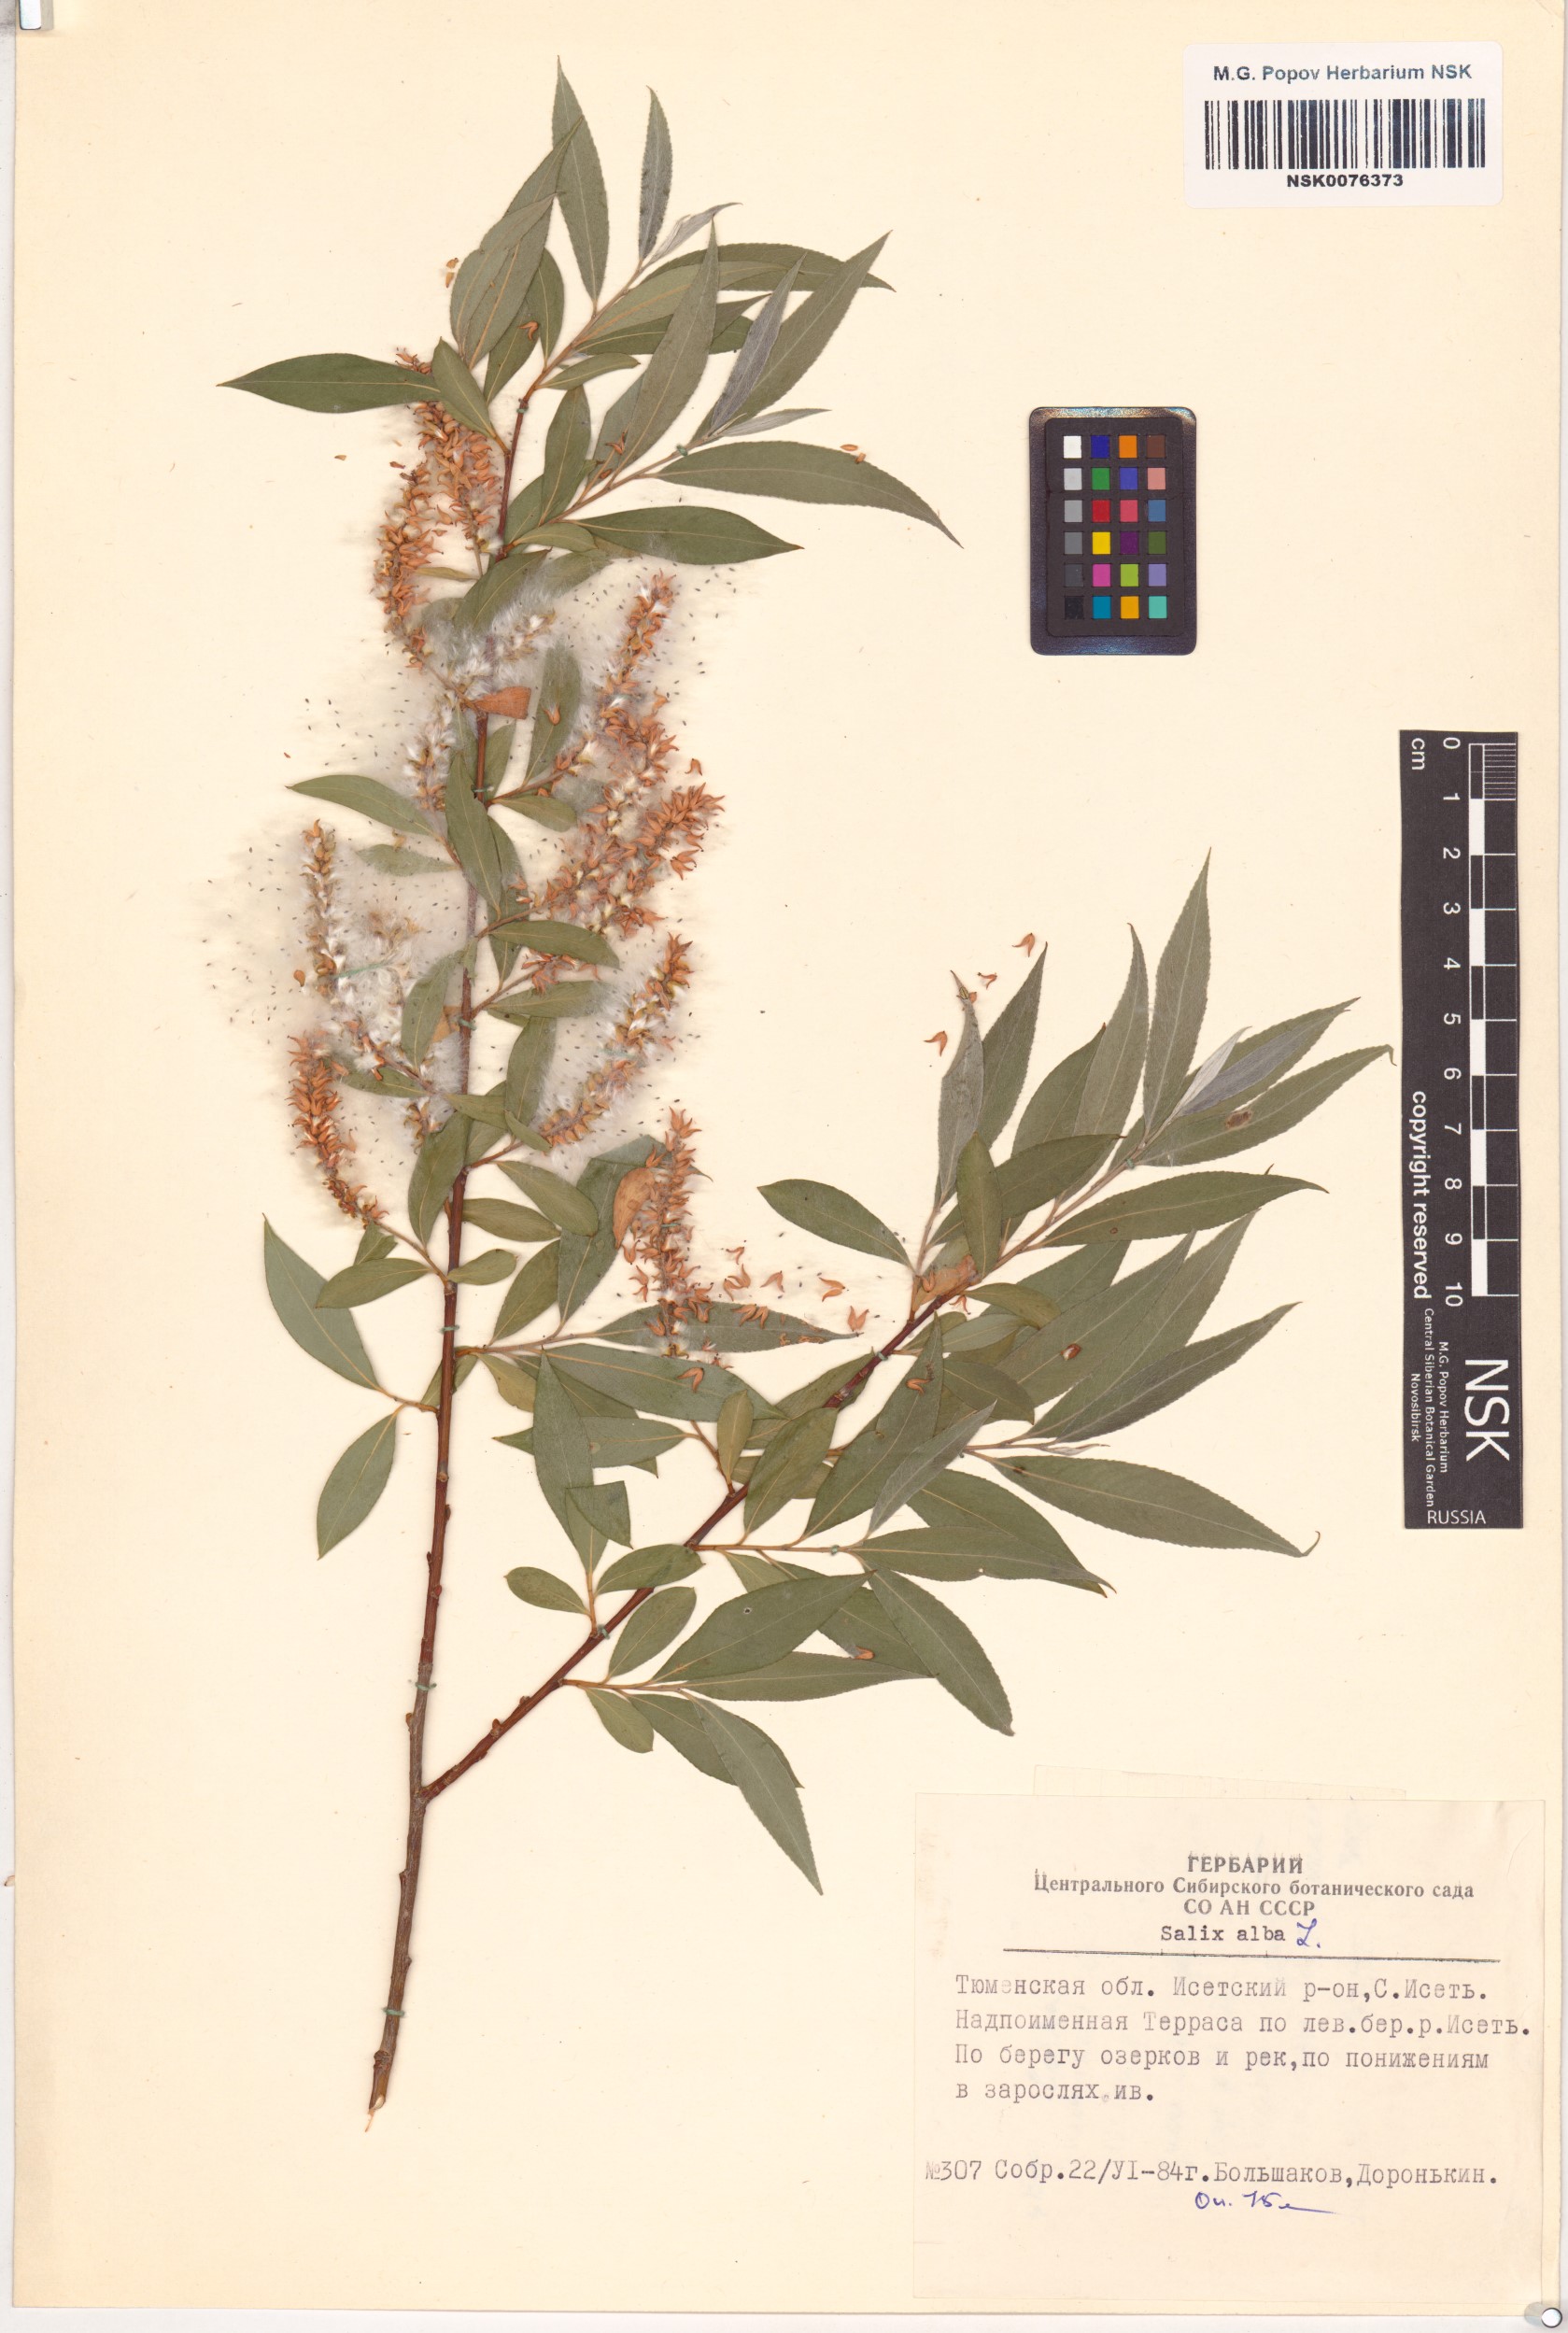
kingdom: Plantae
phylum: Tracheophyta
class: Magnoliopsida
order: Malpighiales
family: Salicaceae
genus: Salix
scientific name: Salix alba
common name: White willow
